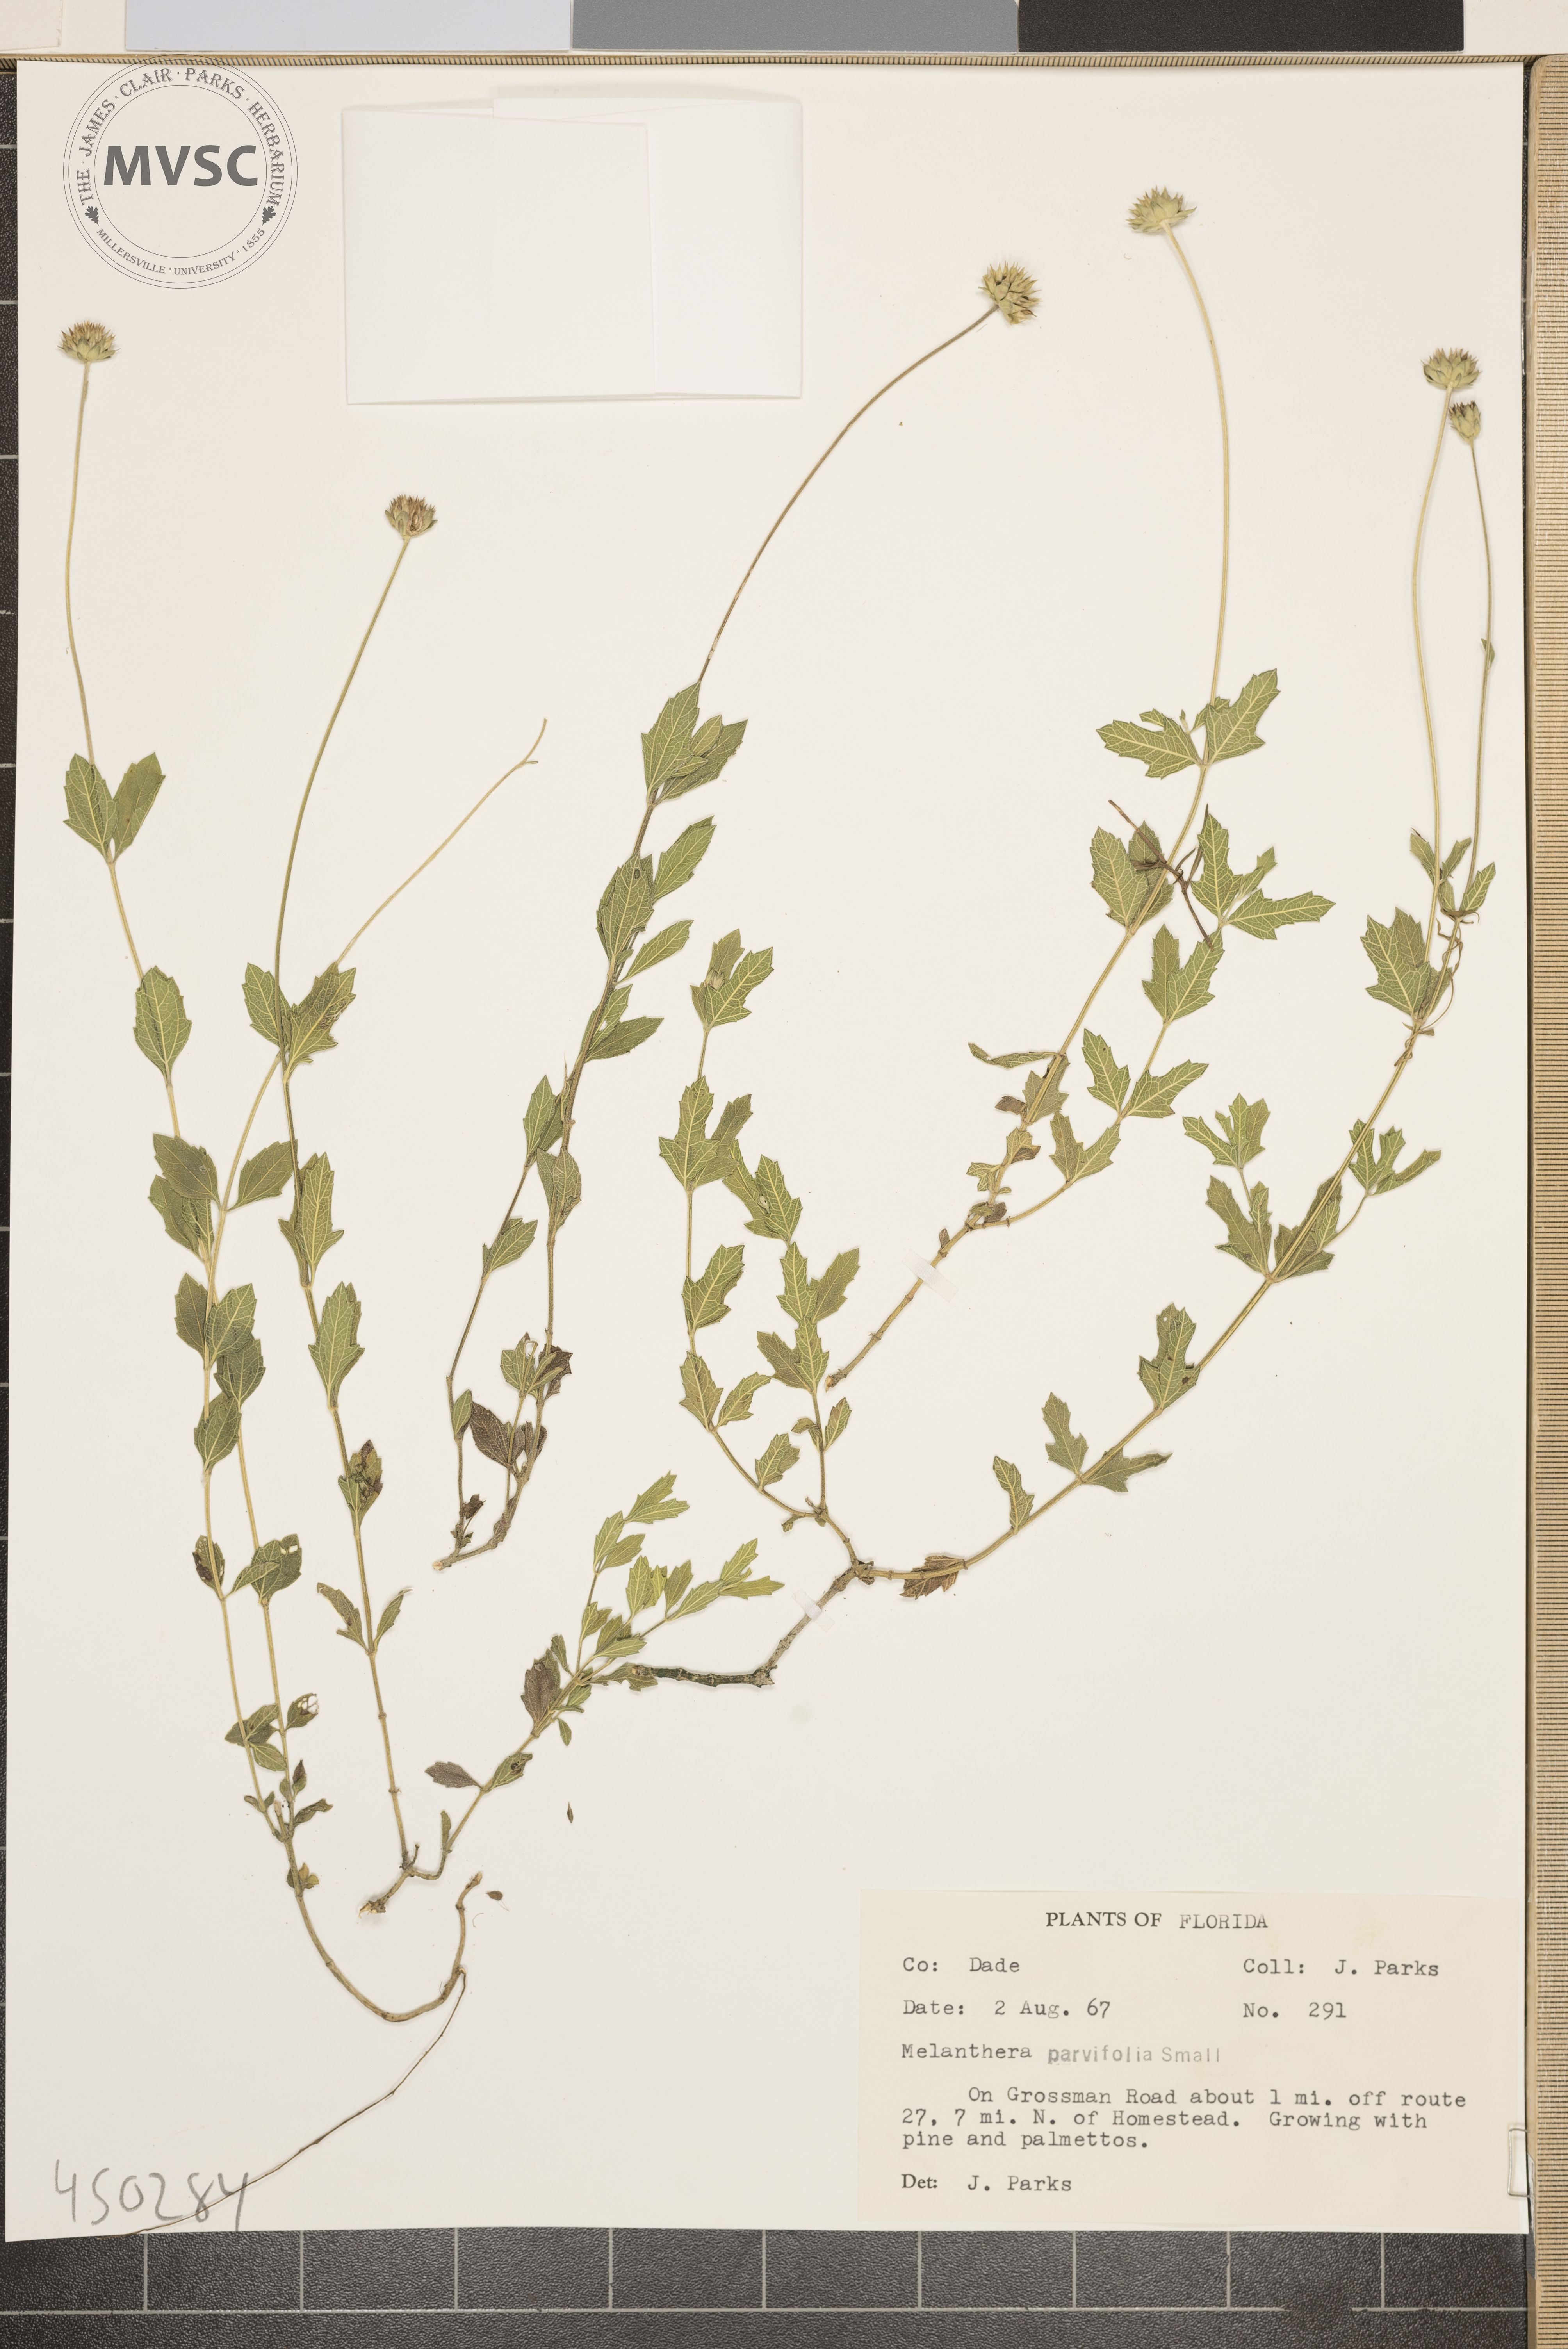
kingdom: Plantae
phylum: Tracheophyta
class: Magnoliopsida
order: Asterales
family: Asteraceae
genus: Melanthera
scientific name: Melanthera parvifolia
